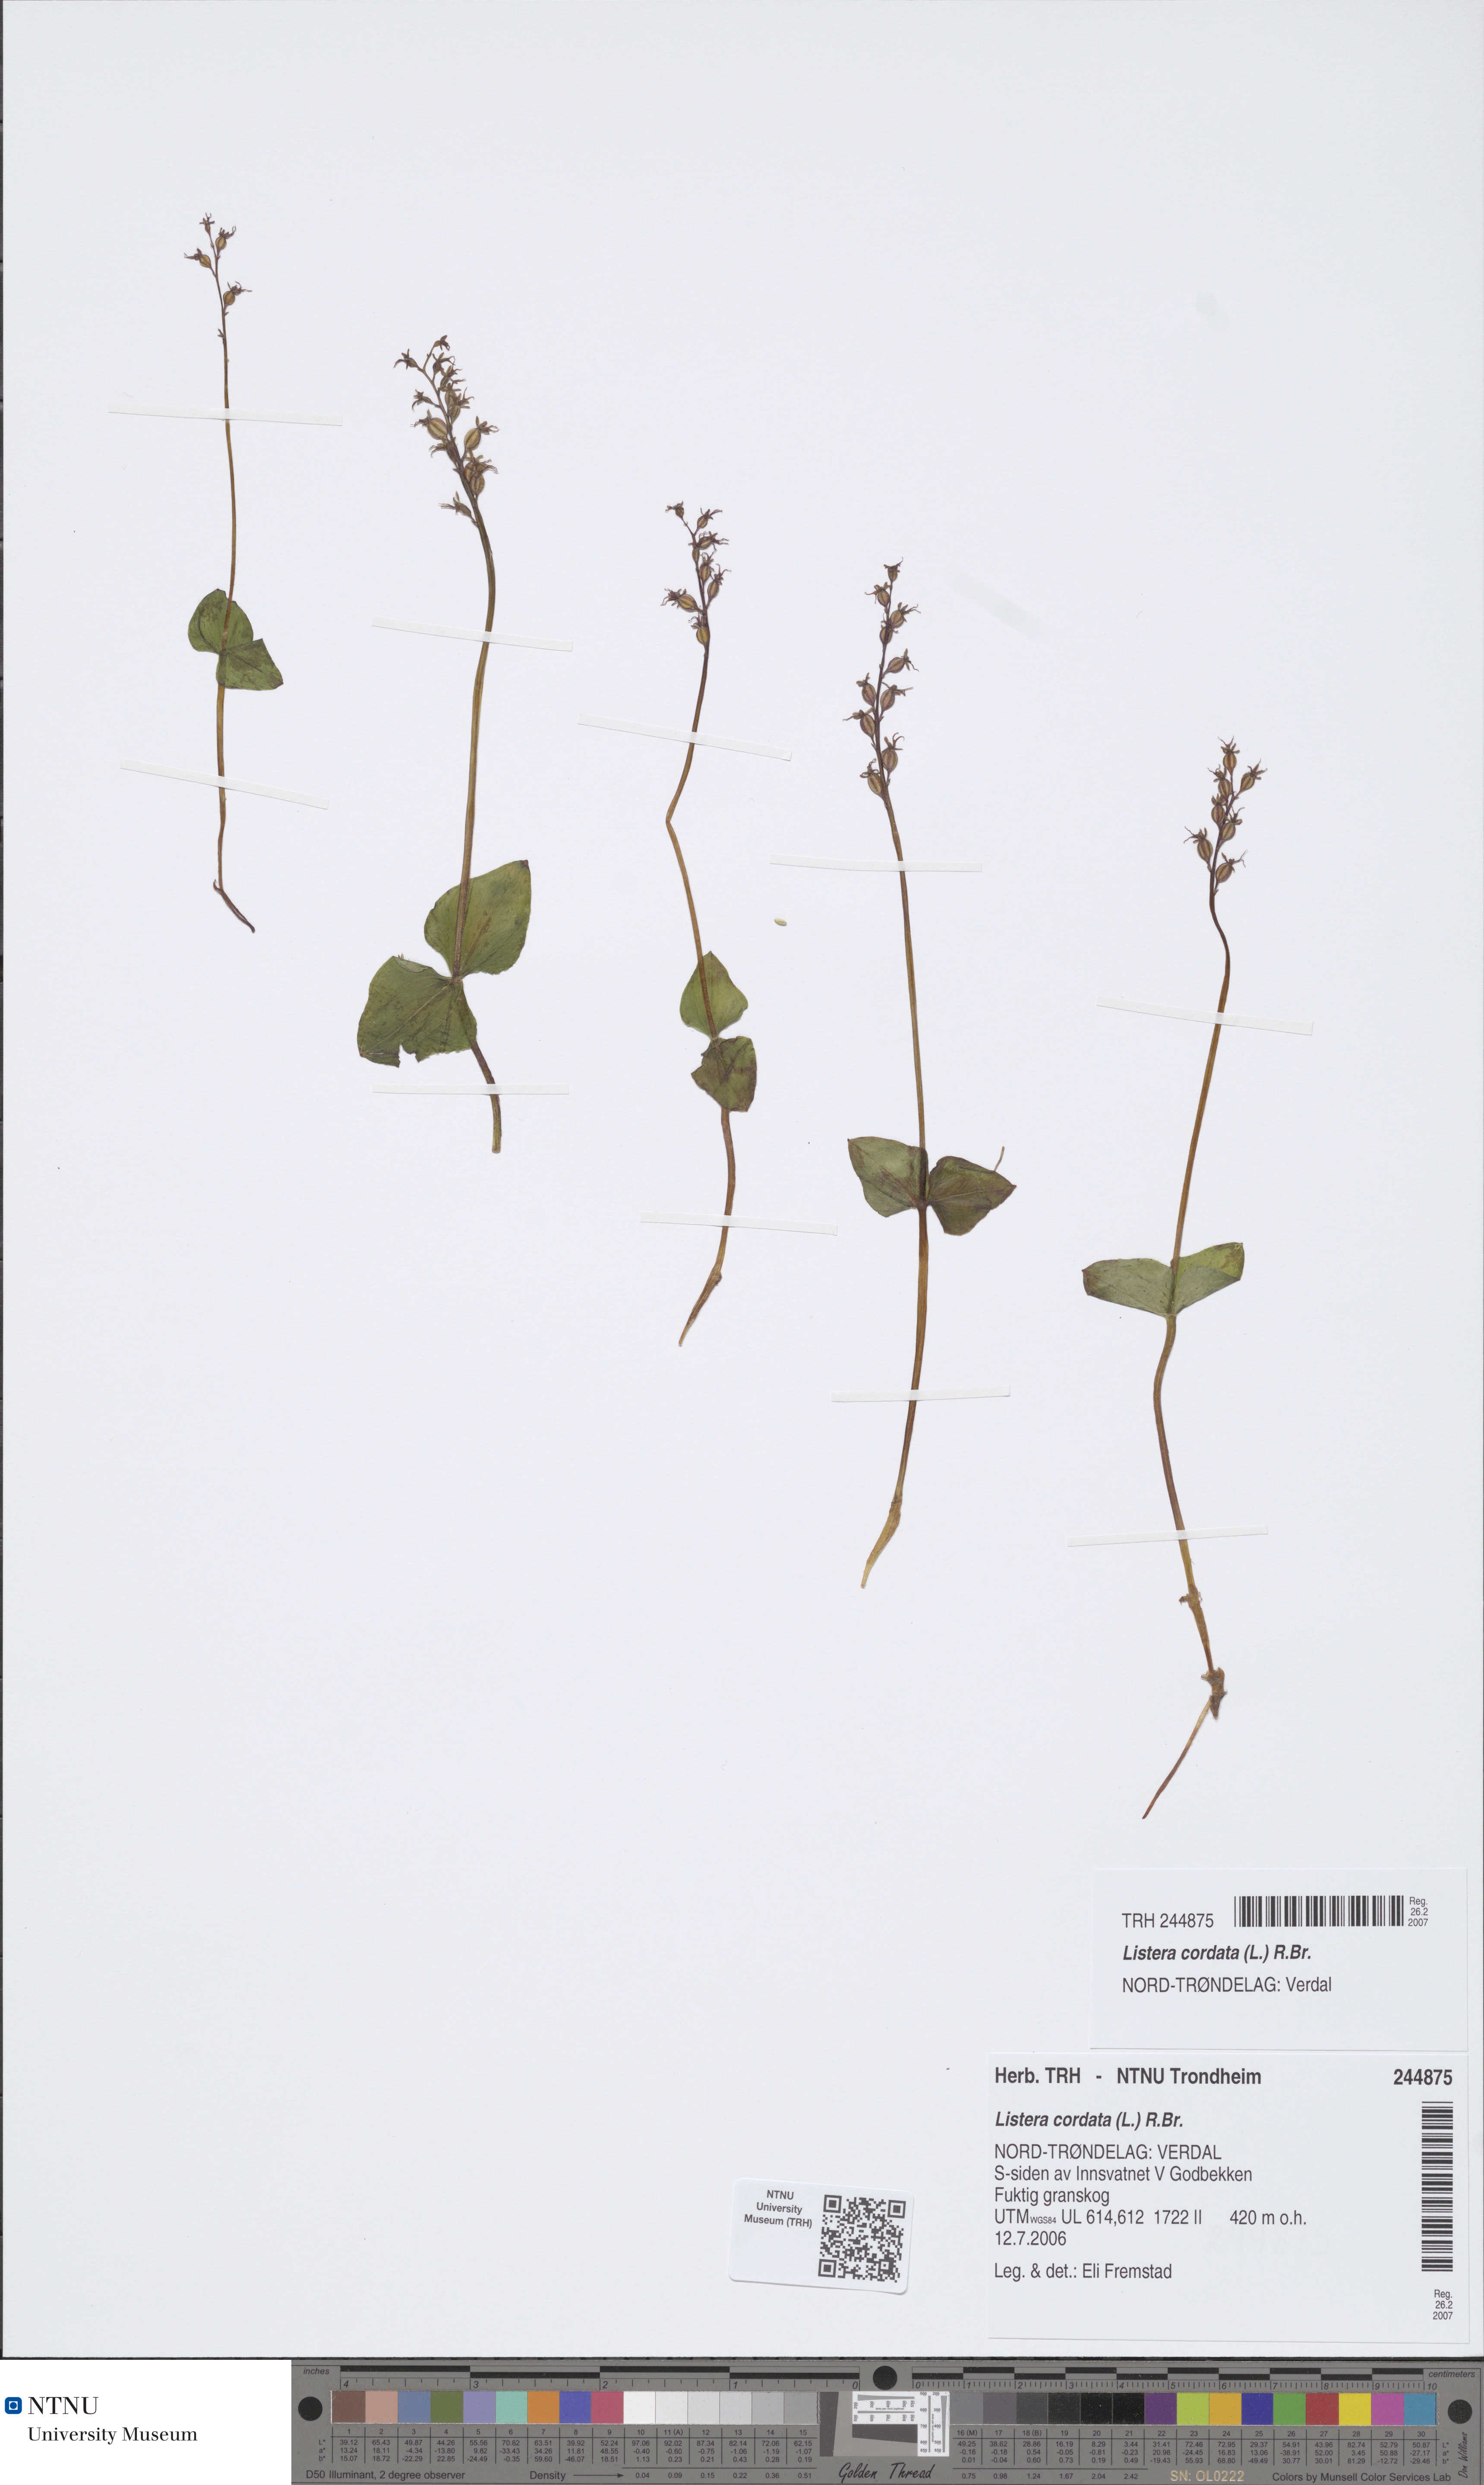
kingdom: Plantae
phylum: Tracheophyta
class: Liliopsida
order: Asparagales
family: Orchidaceae
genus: Neottia
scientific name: Neottia cordata
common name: Lesser twayblade
